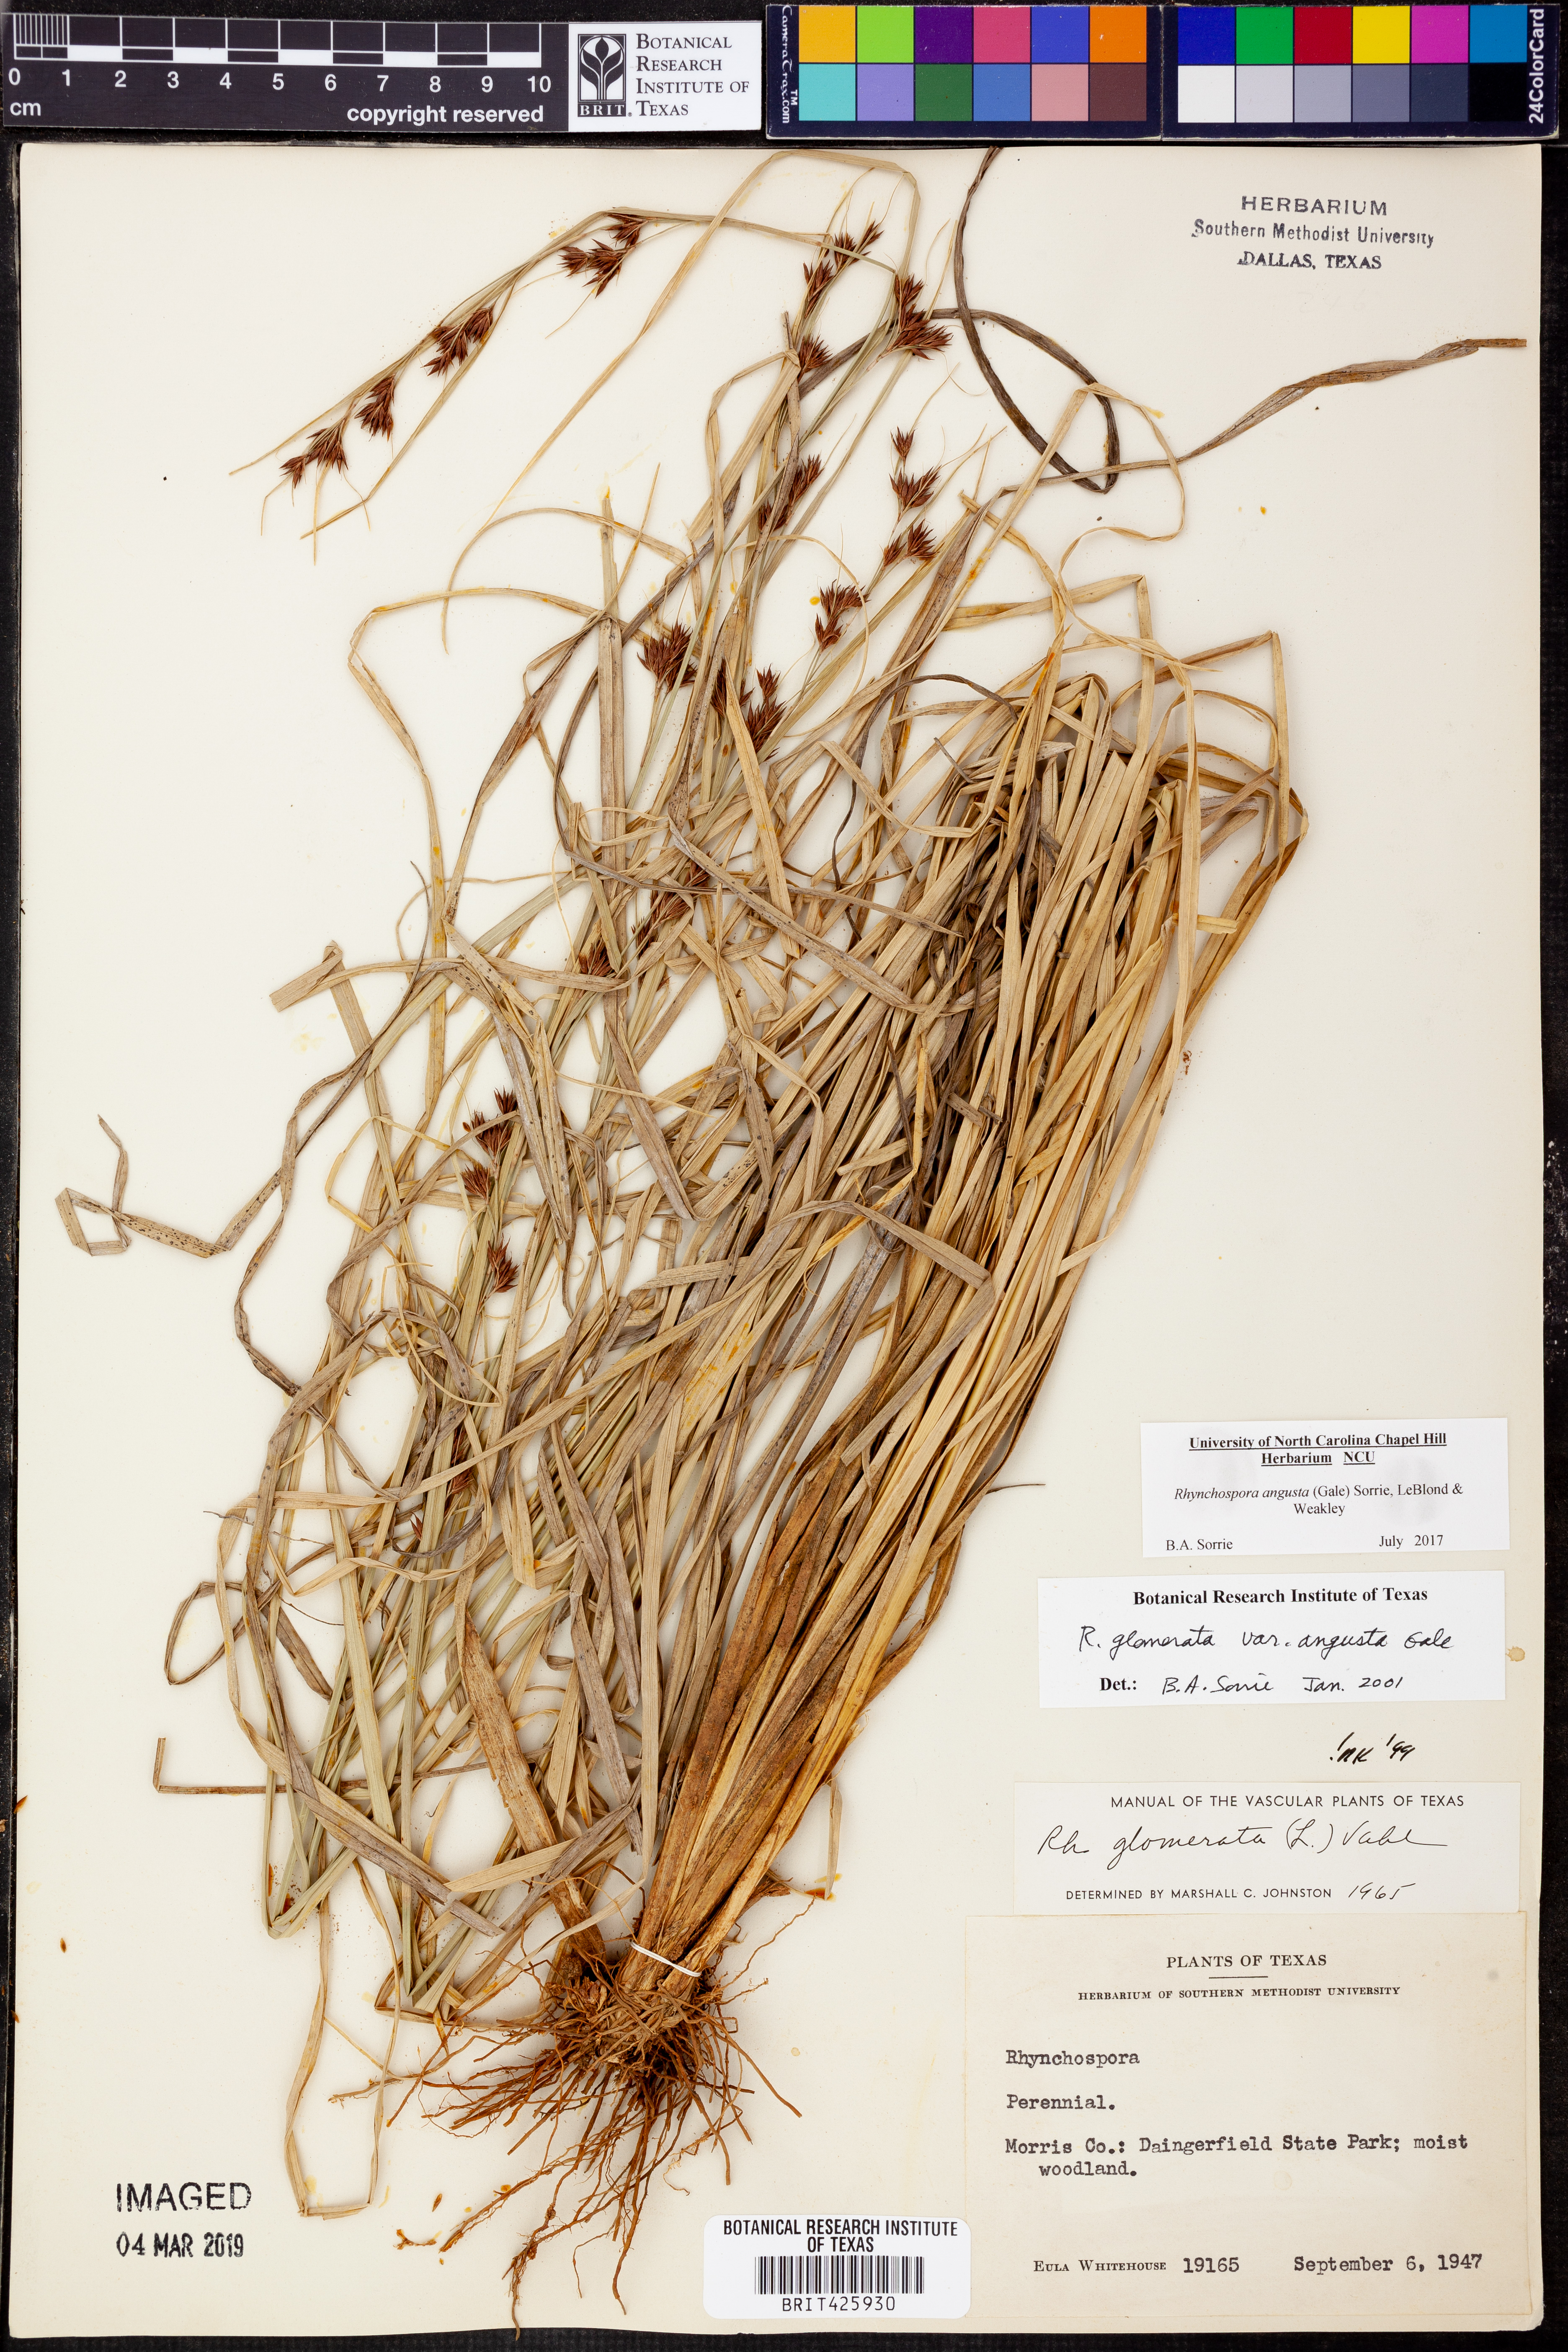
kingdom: Plantae
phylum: Tracheophyta
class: Liliopsida
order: Poales
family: Cyperaceae
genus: Rhynchospora
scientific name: Rhynchospora angusta
